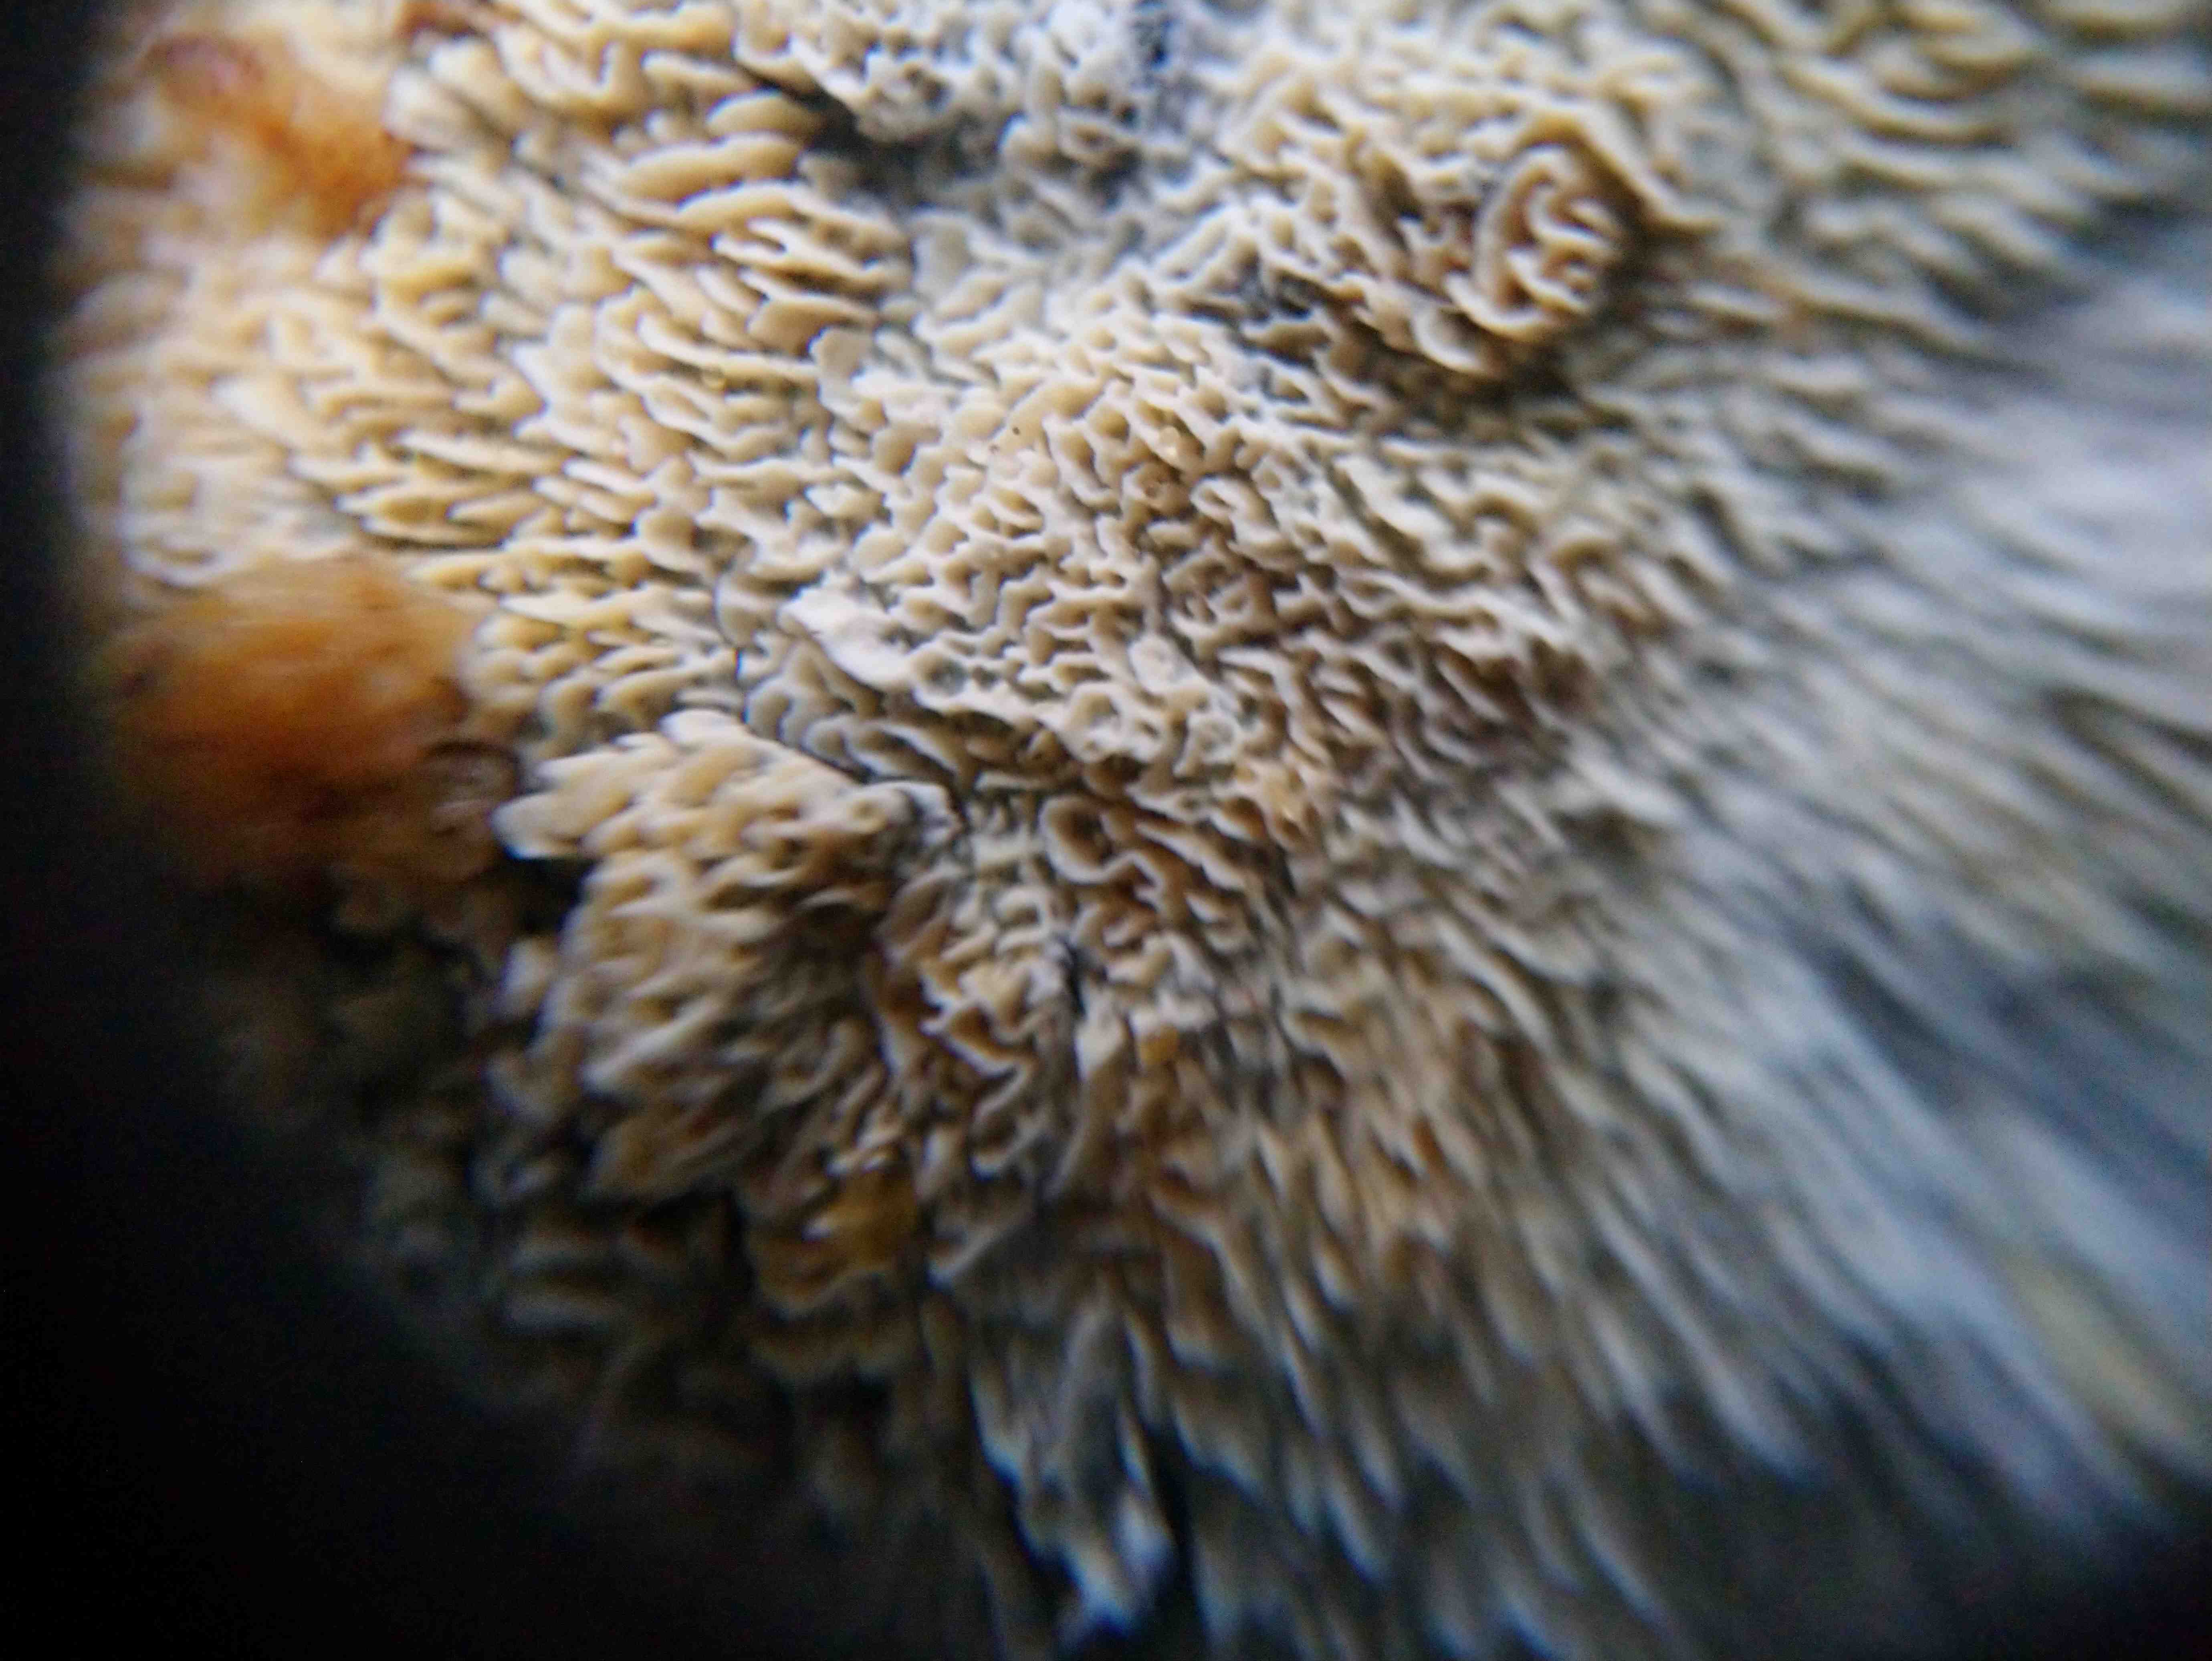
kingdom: Fungi
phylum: Basidiomycota
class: Agaricomycetes
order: Hymenochaetales
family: Schizoporaceae
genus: Xylodon
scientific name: Xylodon subtropicus
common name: labyrint-tandsvamp
